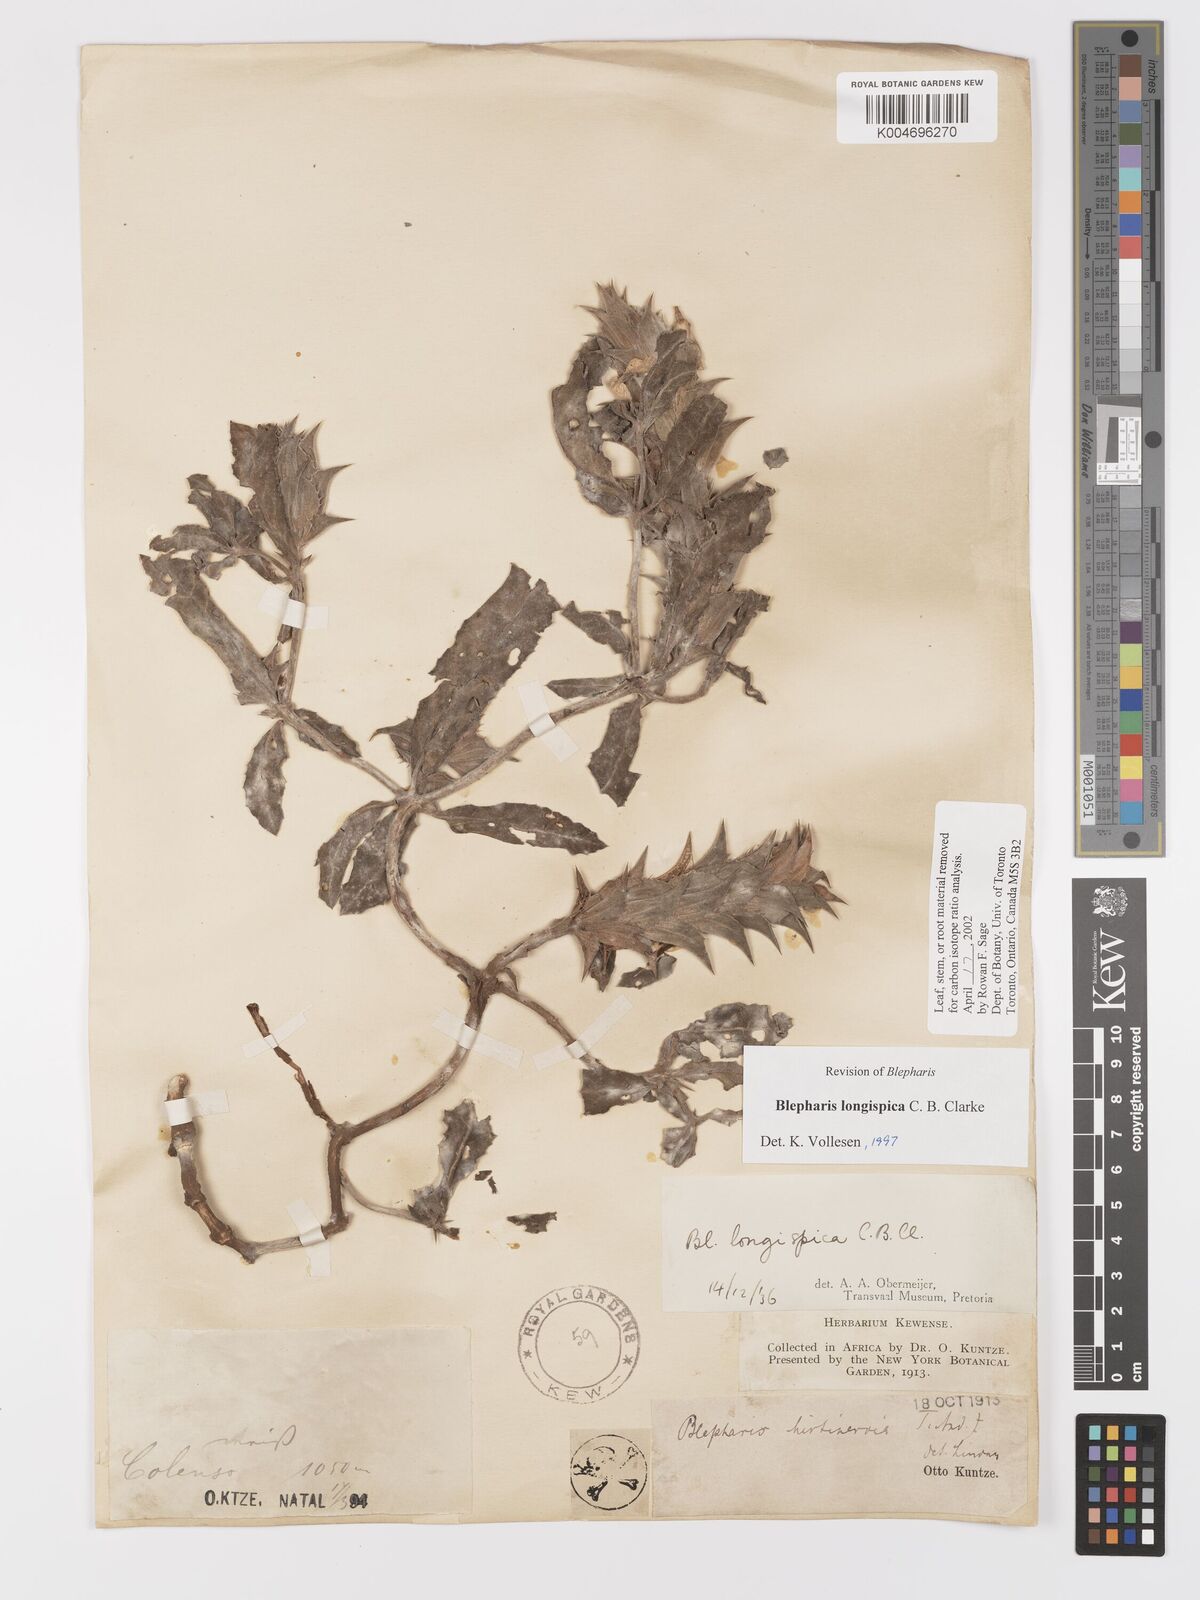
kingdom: Plantae
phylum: Tracheophyta
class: Magnoliopsida
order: Lamiales
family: Acanthaceae
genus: Blepharis
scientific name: Blepharis longispica
